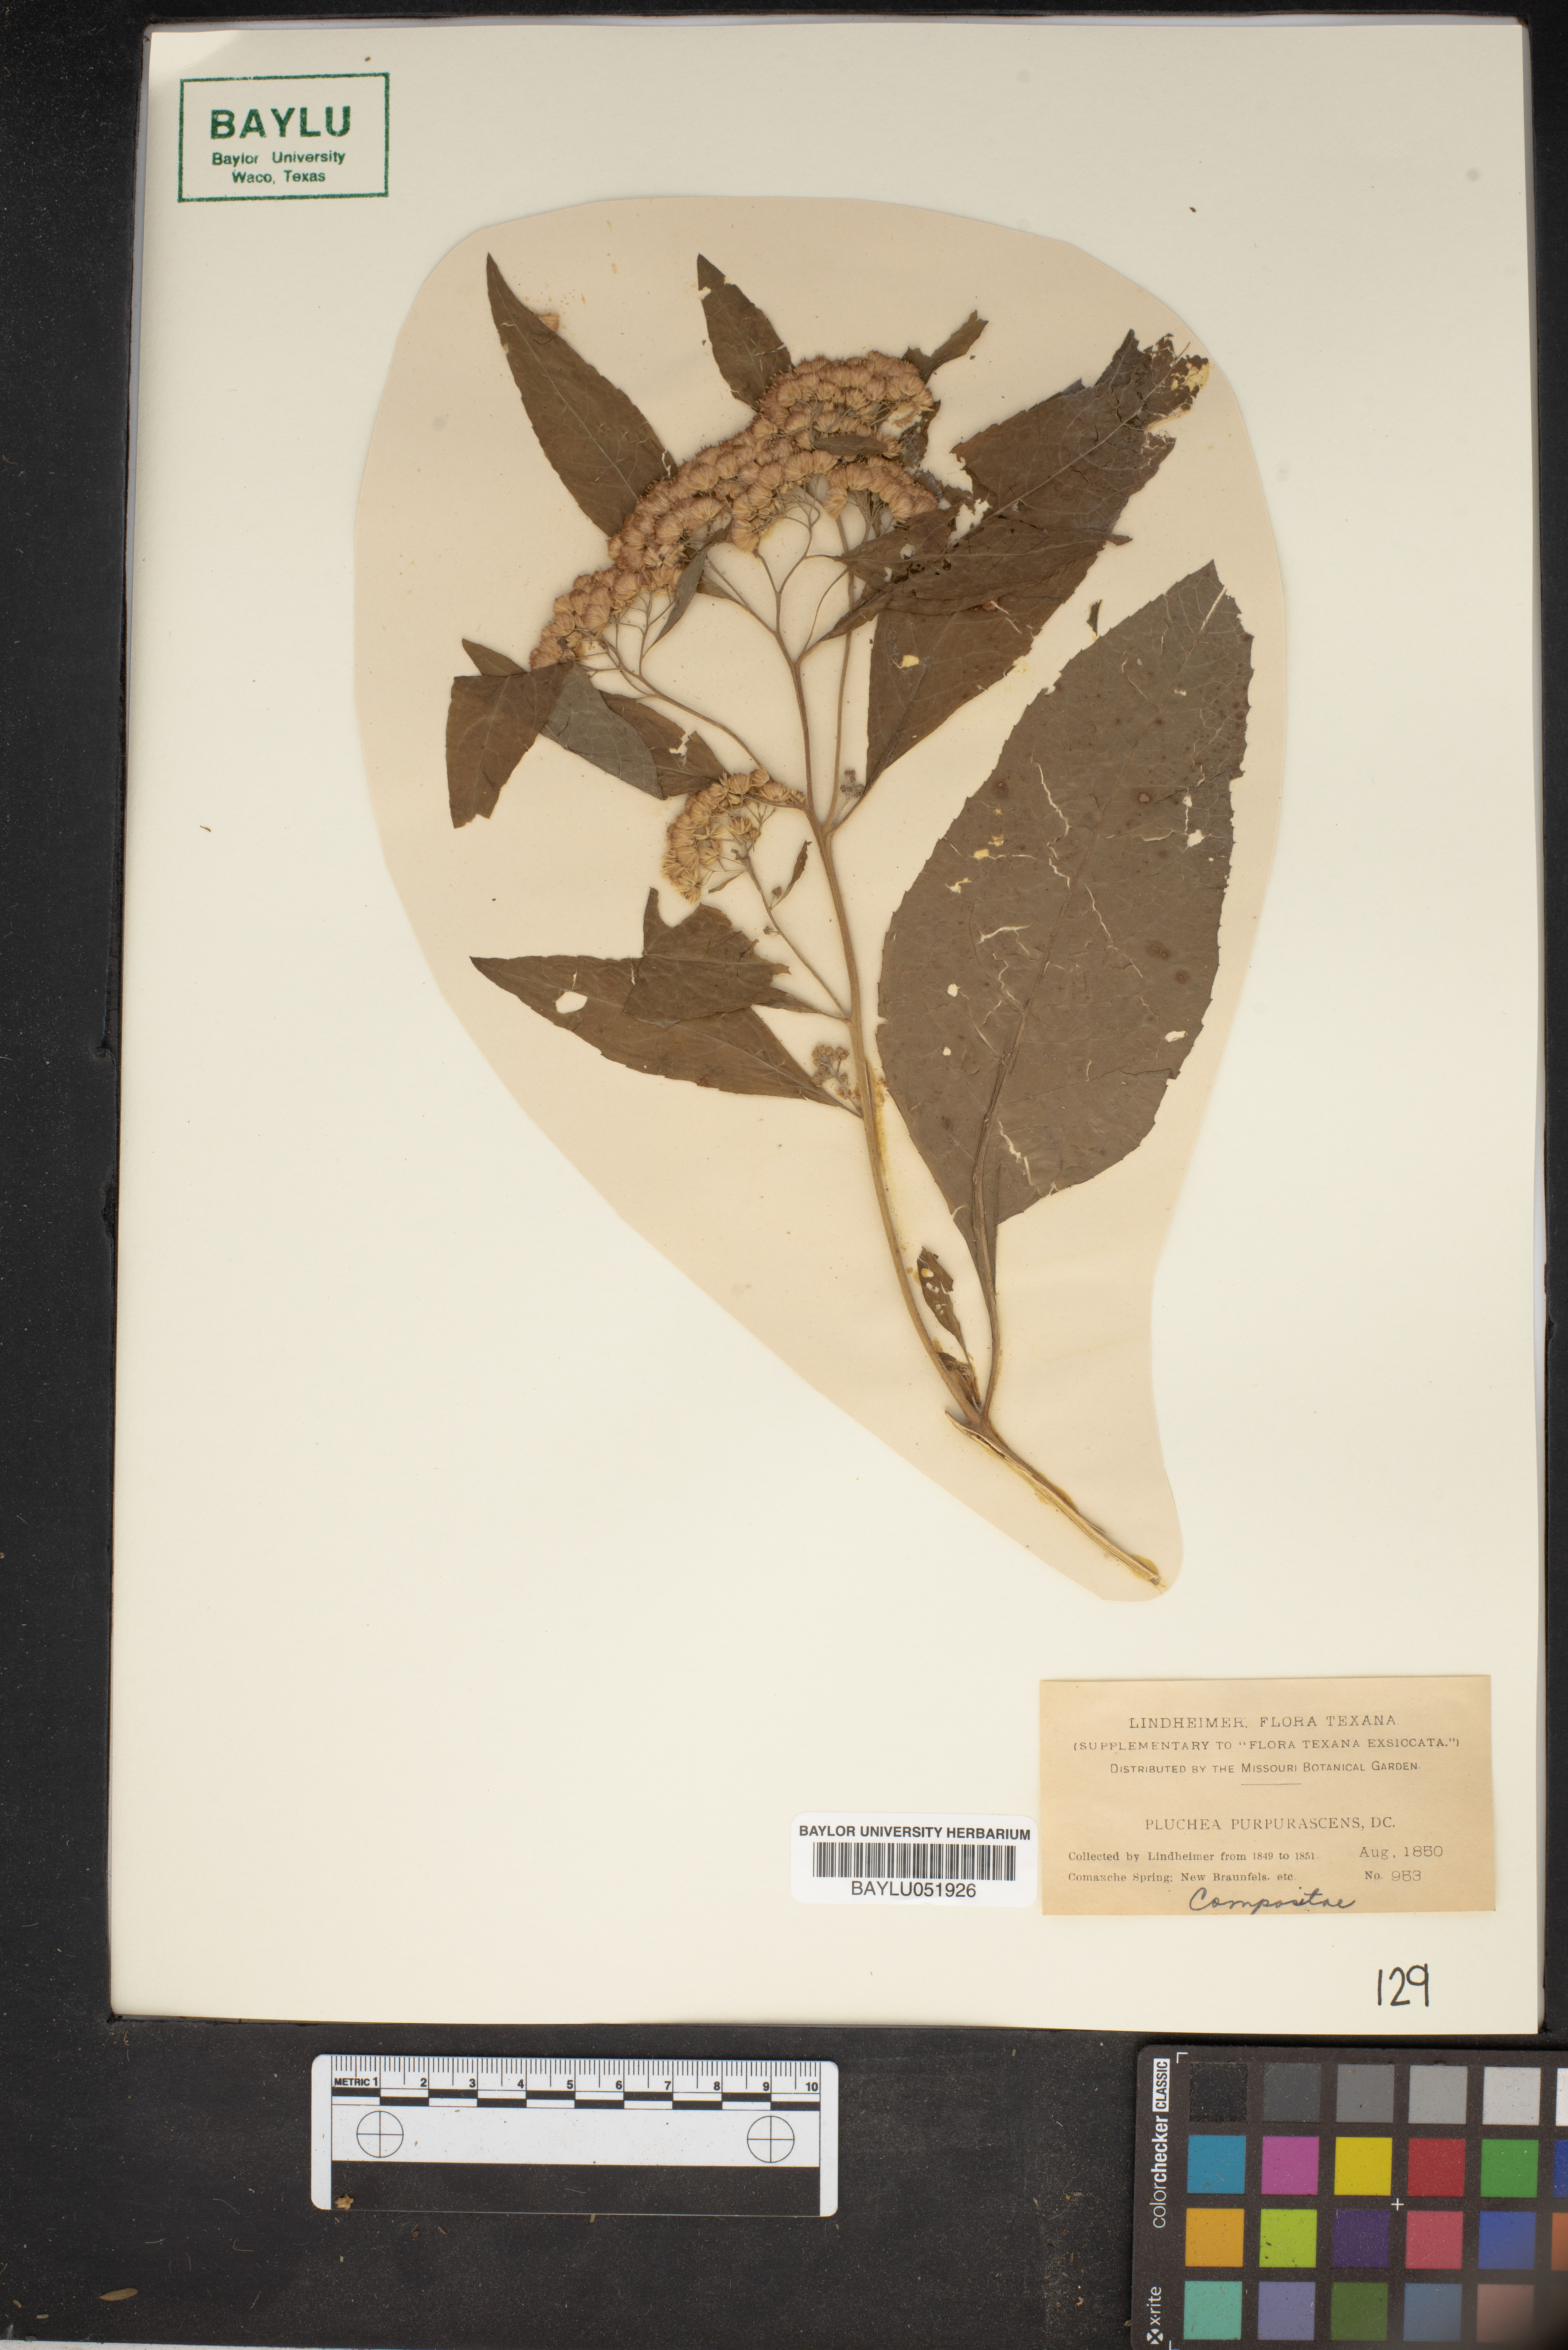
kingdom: Plantae
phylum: Tracheophyta
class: Magnoliopsida
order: Asterales
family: Asteraceae
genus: Pluchea
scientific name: Pluchea odorata
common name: Saltmarsh fleabane
